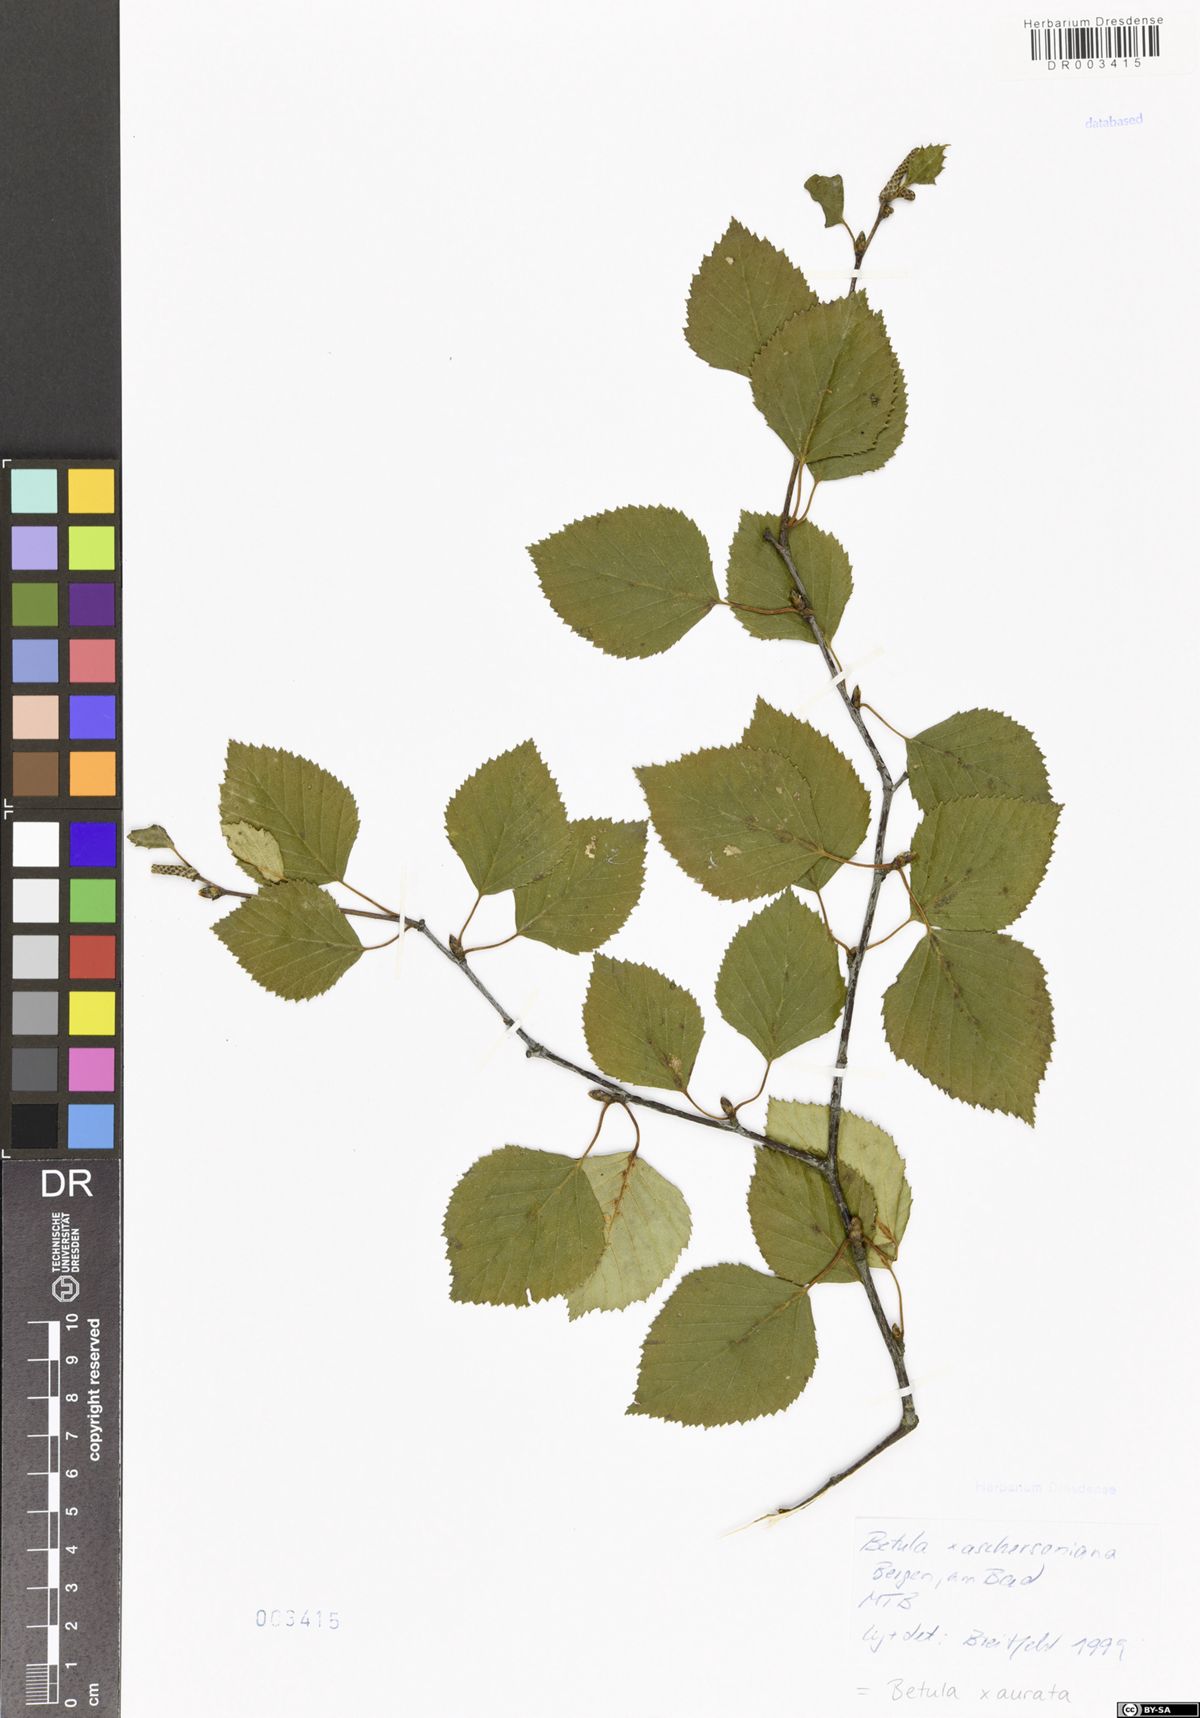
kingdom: Plantae
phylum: Tracheophyta
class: Magnoliopsida
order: Fagales
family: Betulaceae
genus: Betula
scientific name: Betula aurata
